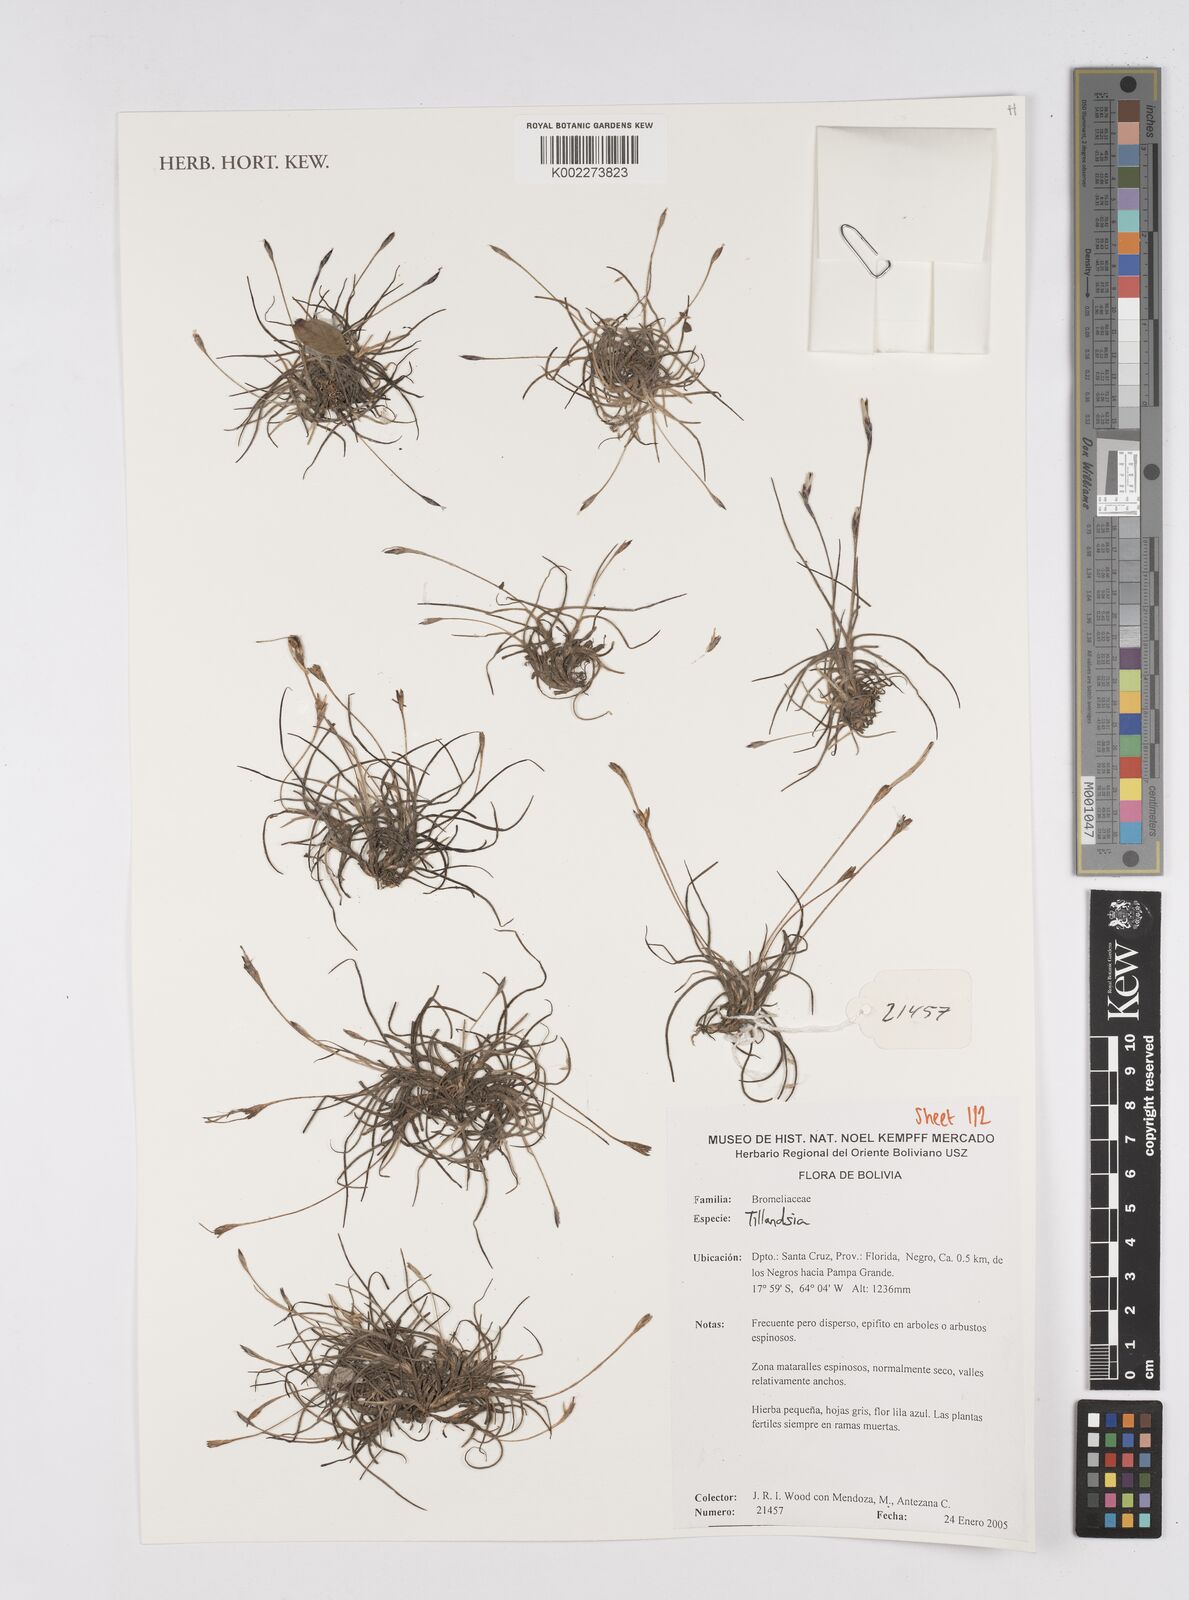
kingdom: Plantae
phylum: Tracheophyta
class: Liliopsida
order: Poales
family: Bromeliaceae
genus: Tillandsia
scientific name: Tillandsia
